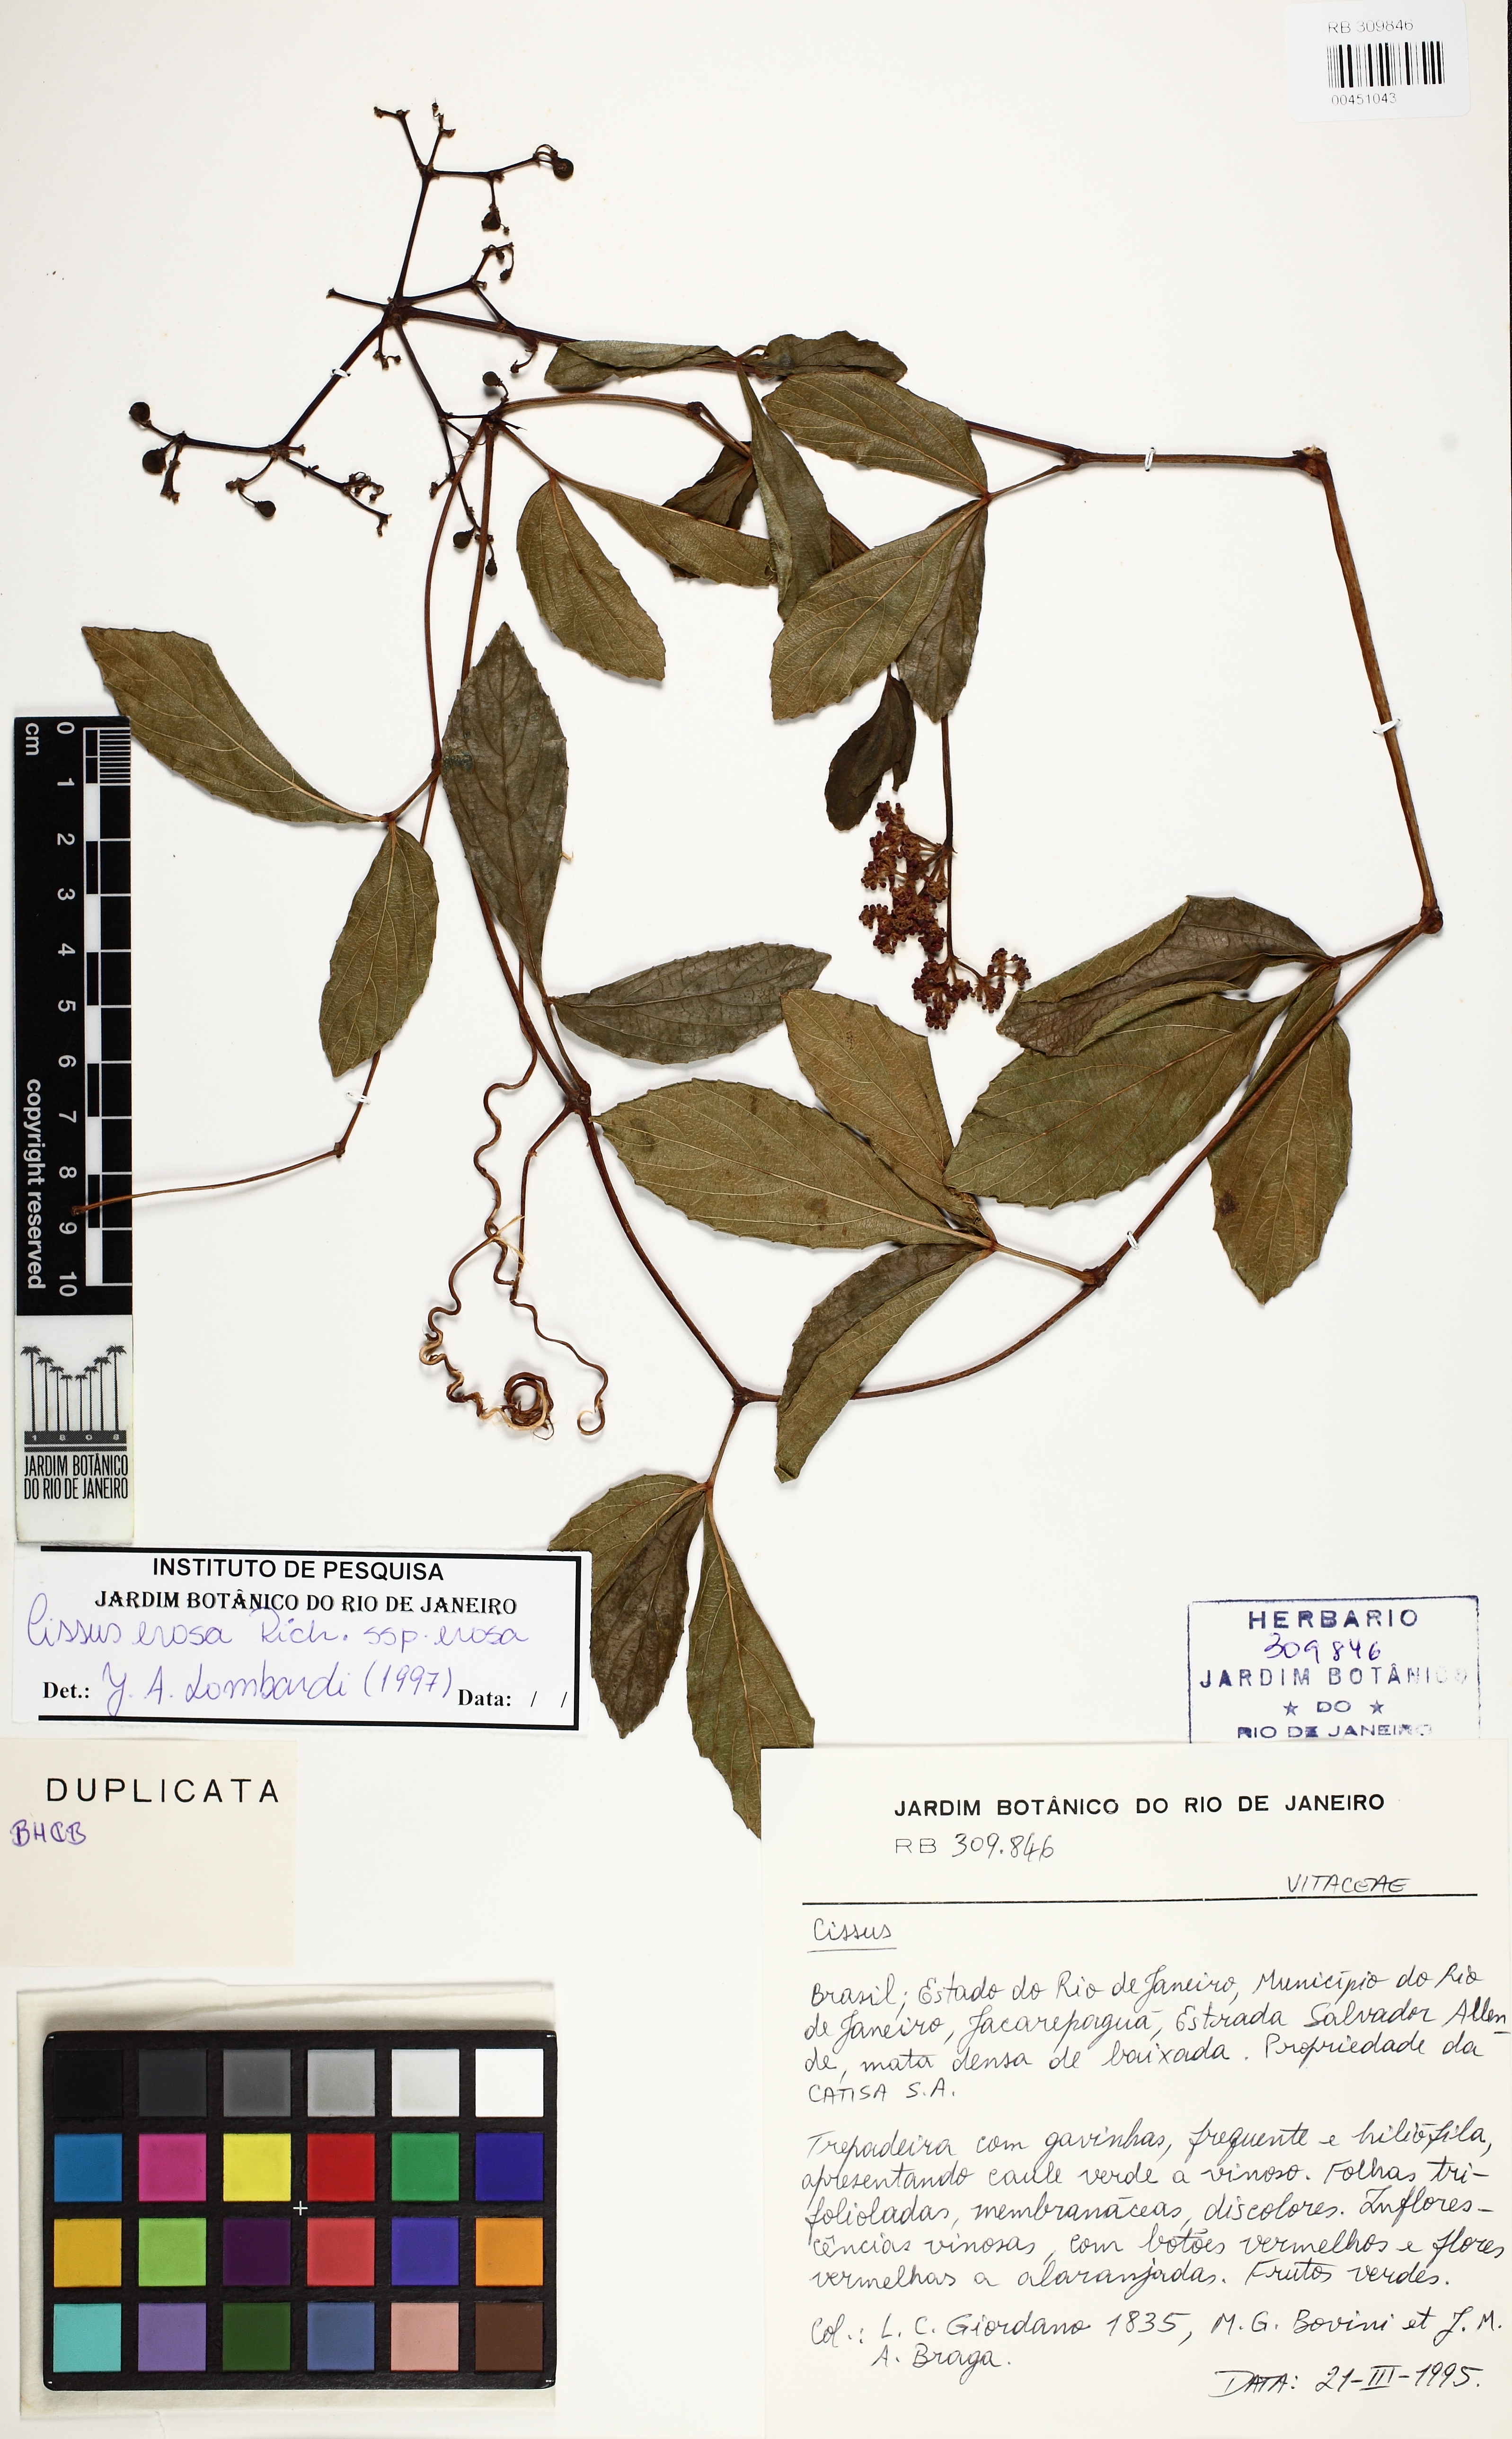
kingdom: Plantae
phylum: Tracheophyta
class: Magnoliopsida
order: Vitales
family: Vitaceae
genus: Cissus
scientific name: Cissus erosa
